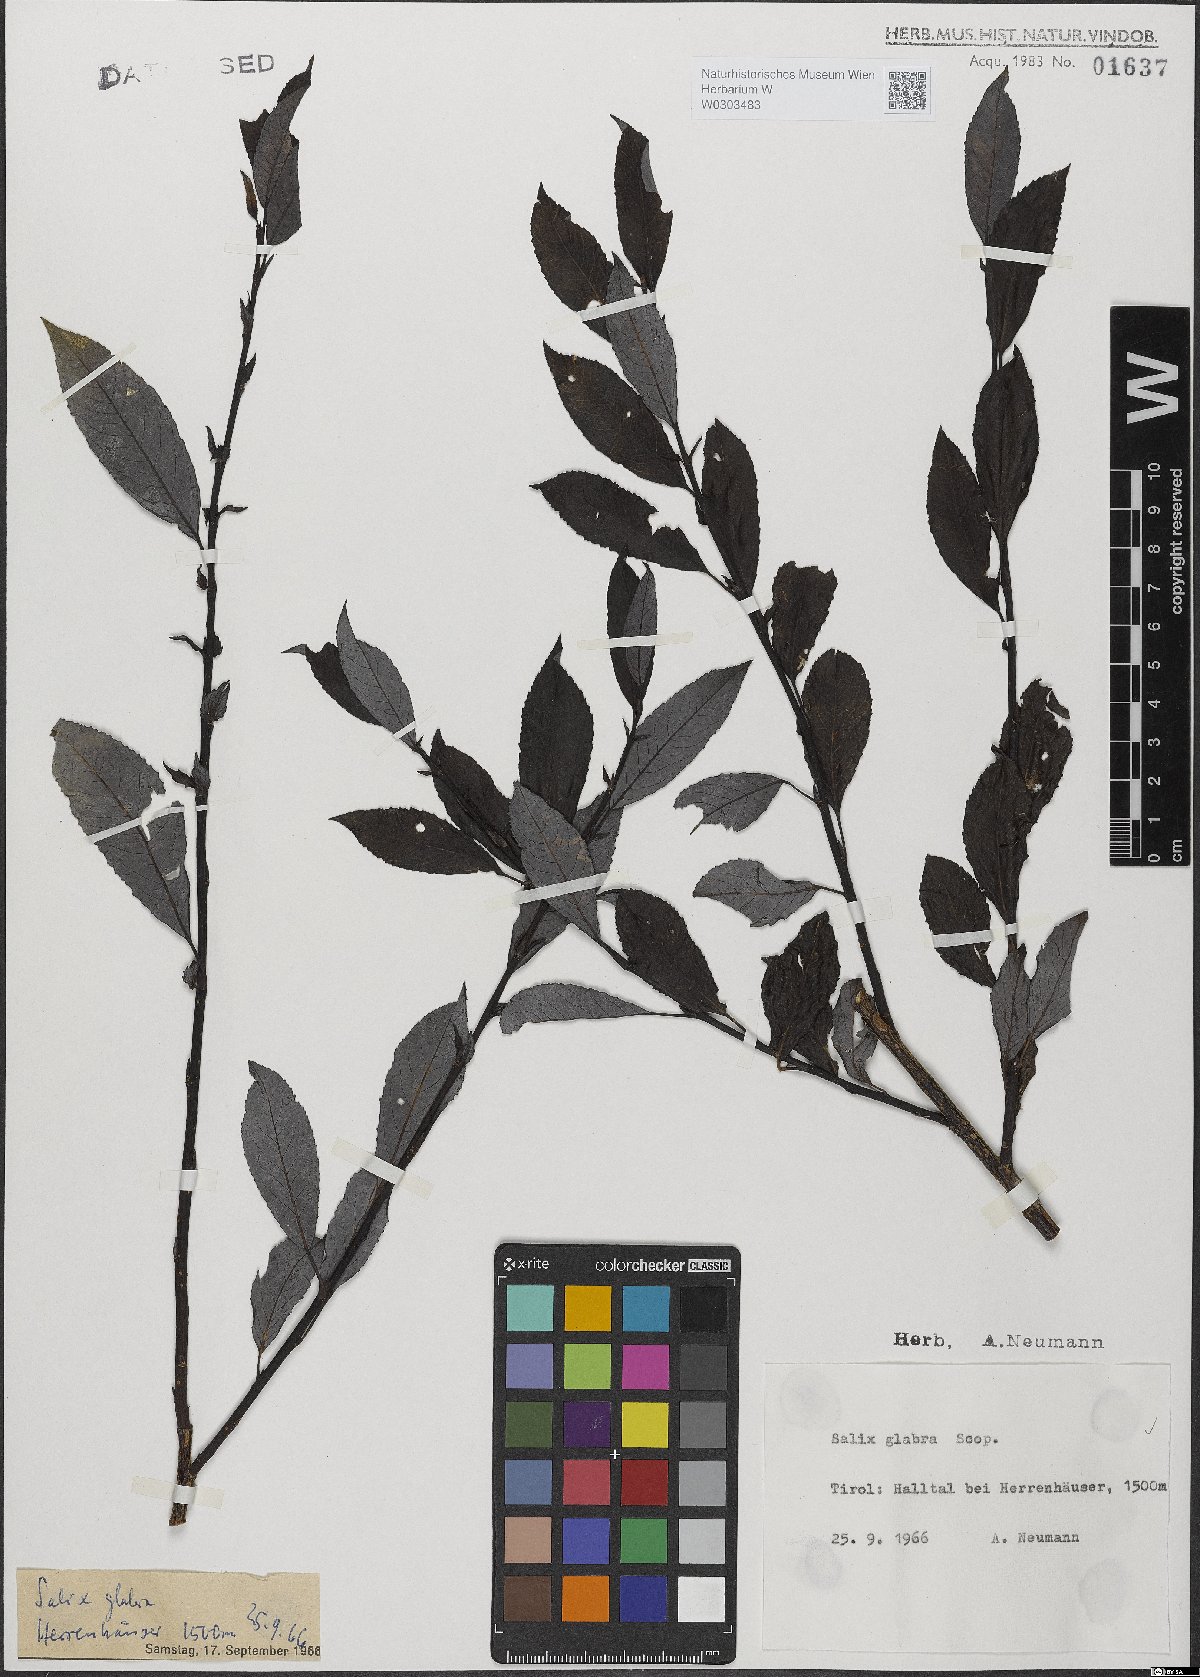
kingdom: Plantae
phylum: Tracheophyta
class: Magnoliopsida
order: Malpighiales
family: Salicaceae
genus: Salix
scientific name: Salix glabra
